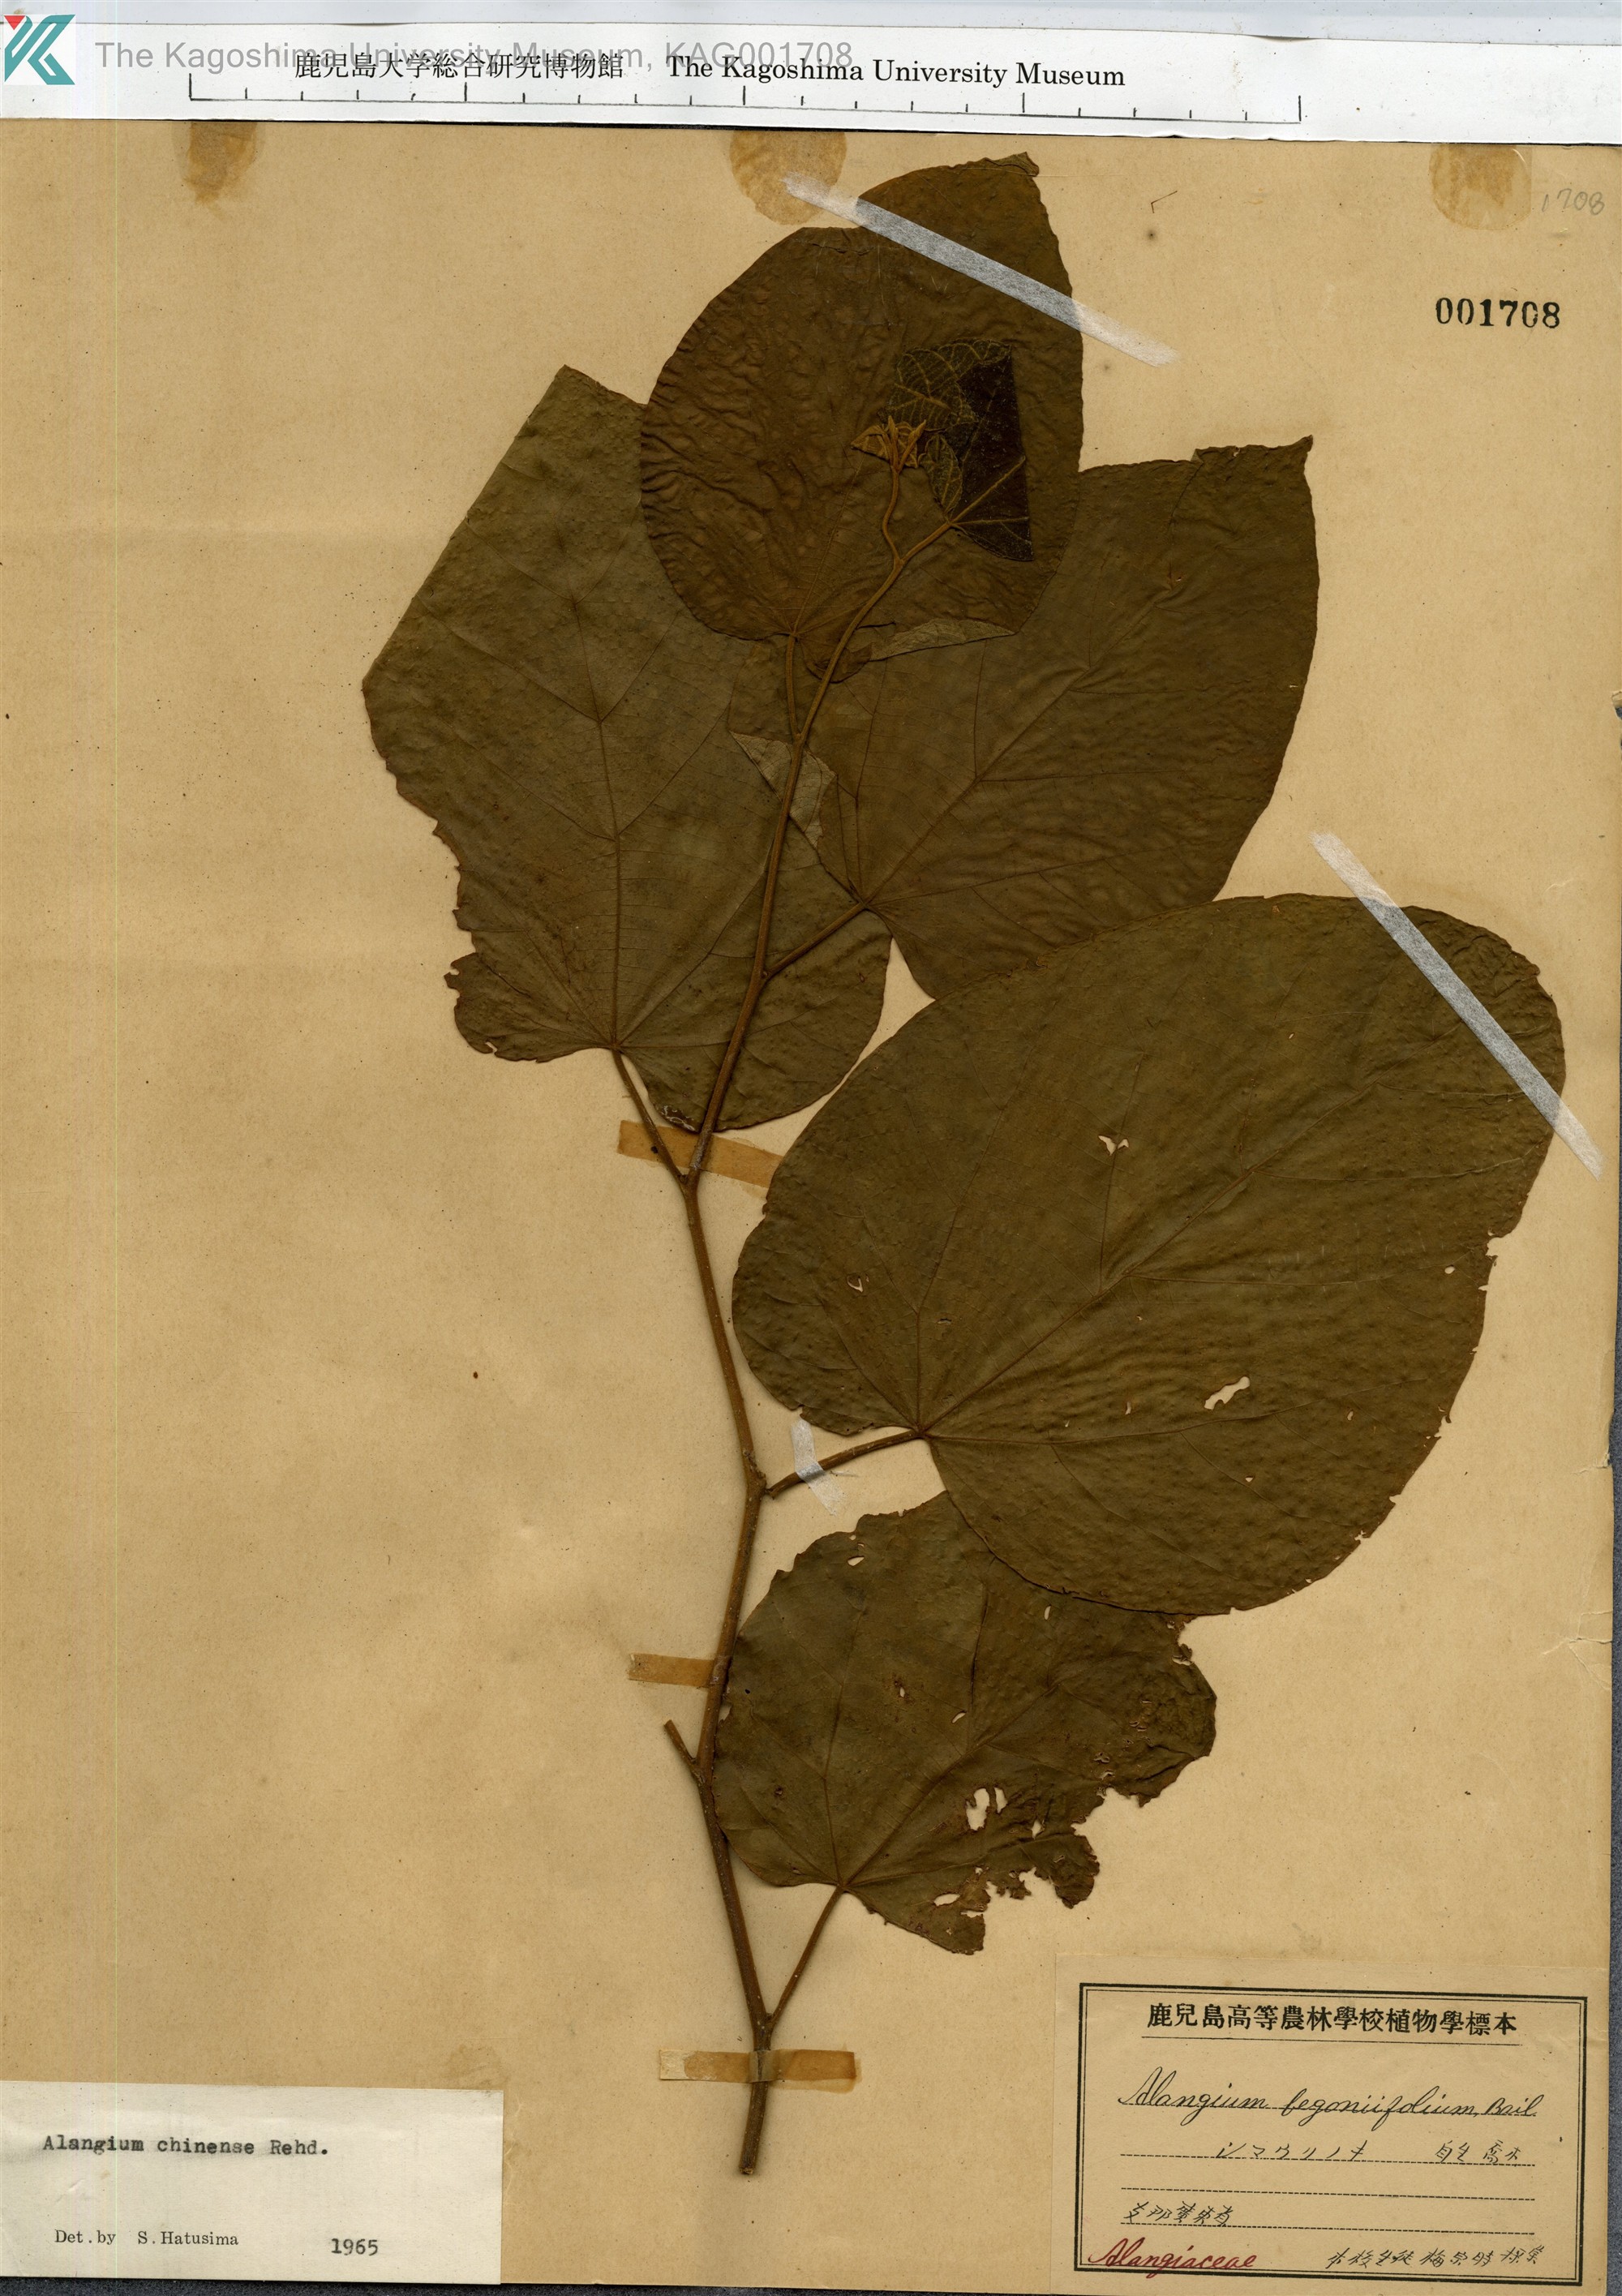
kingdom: Plantae
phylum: Tracheophyta
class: Magnoliopsida
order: Cornales
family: Cornaceae
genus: Alangium
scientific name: Alangium chinense
